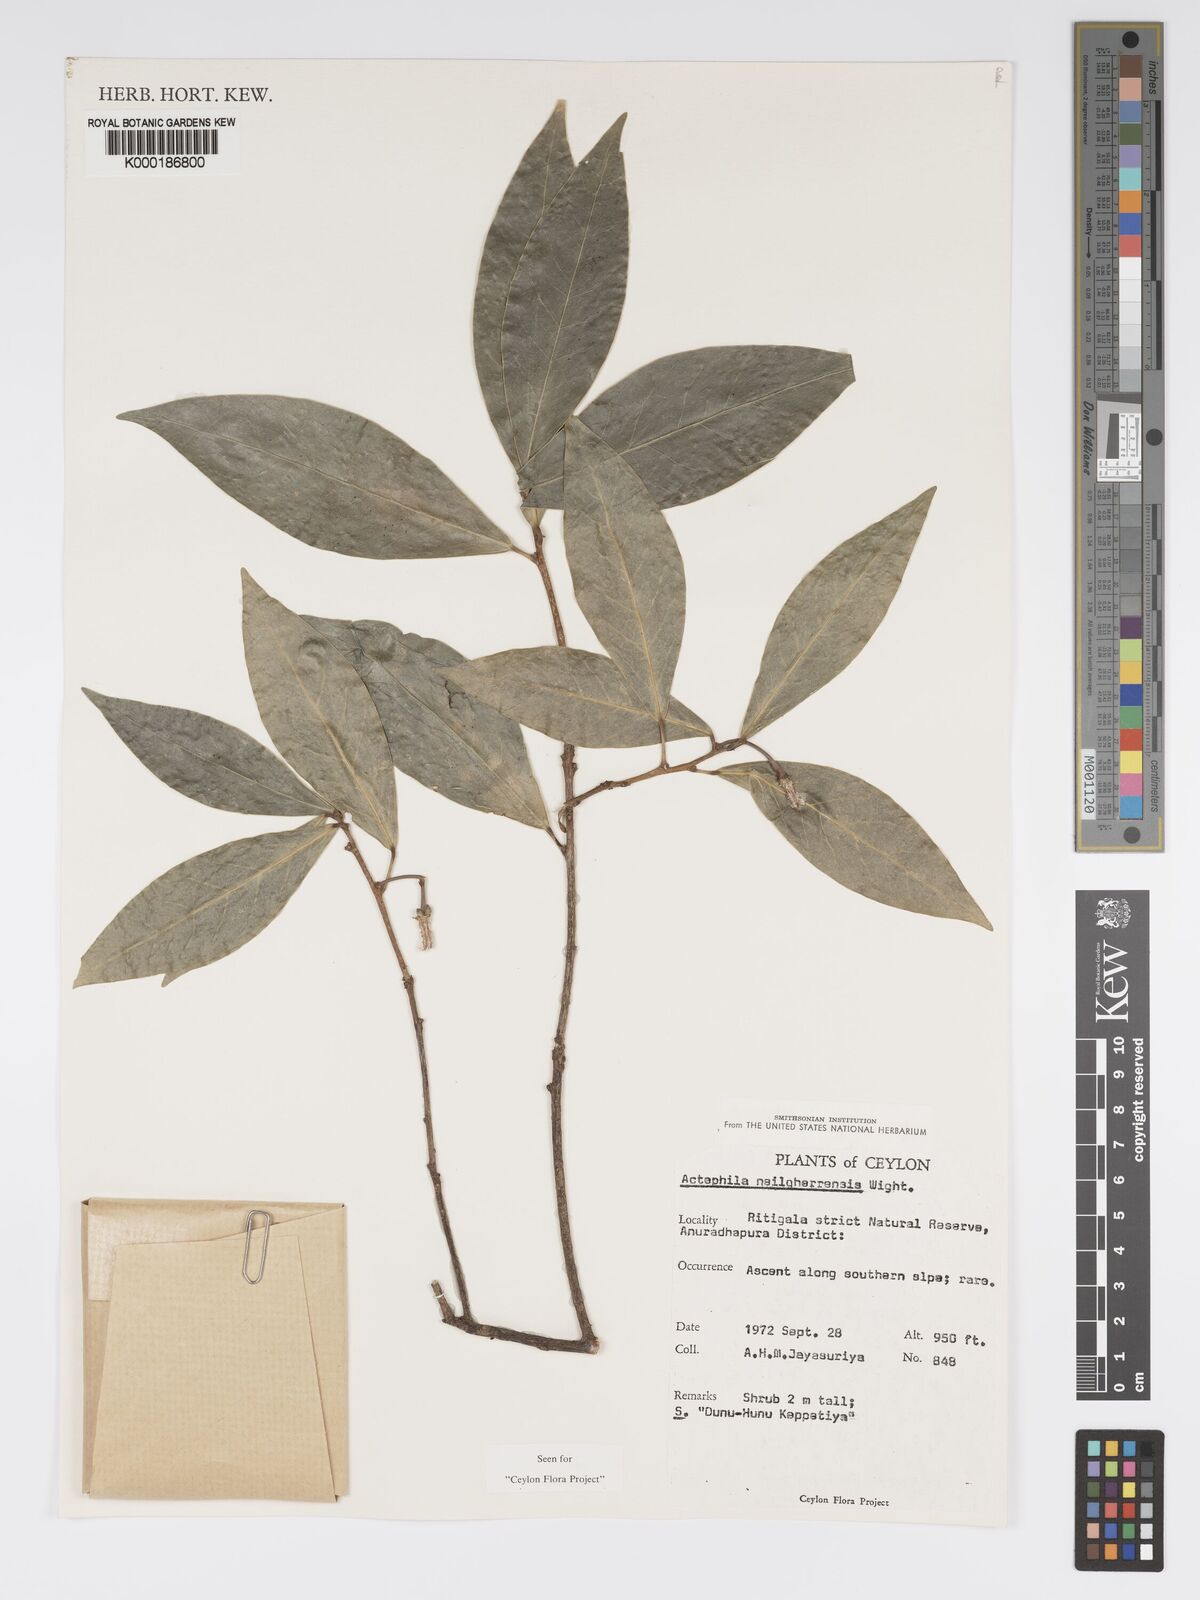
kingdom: Plantae
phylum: Tracheophyta
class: Magnoliopsida
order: Malpighiales
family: Phyllanthaceae
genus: Actephila
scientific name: Actephila excelsa
